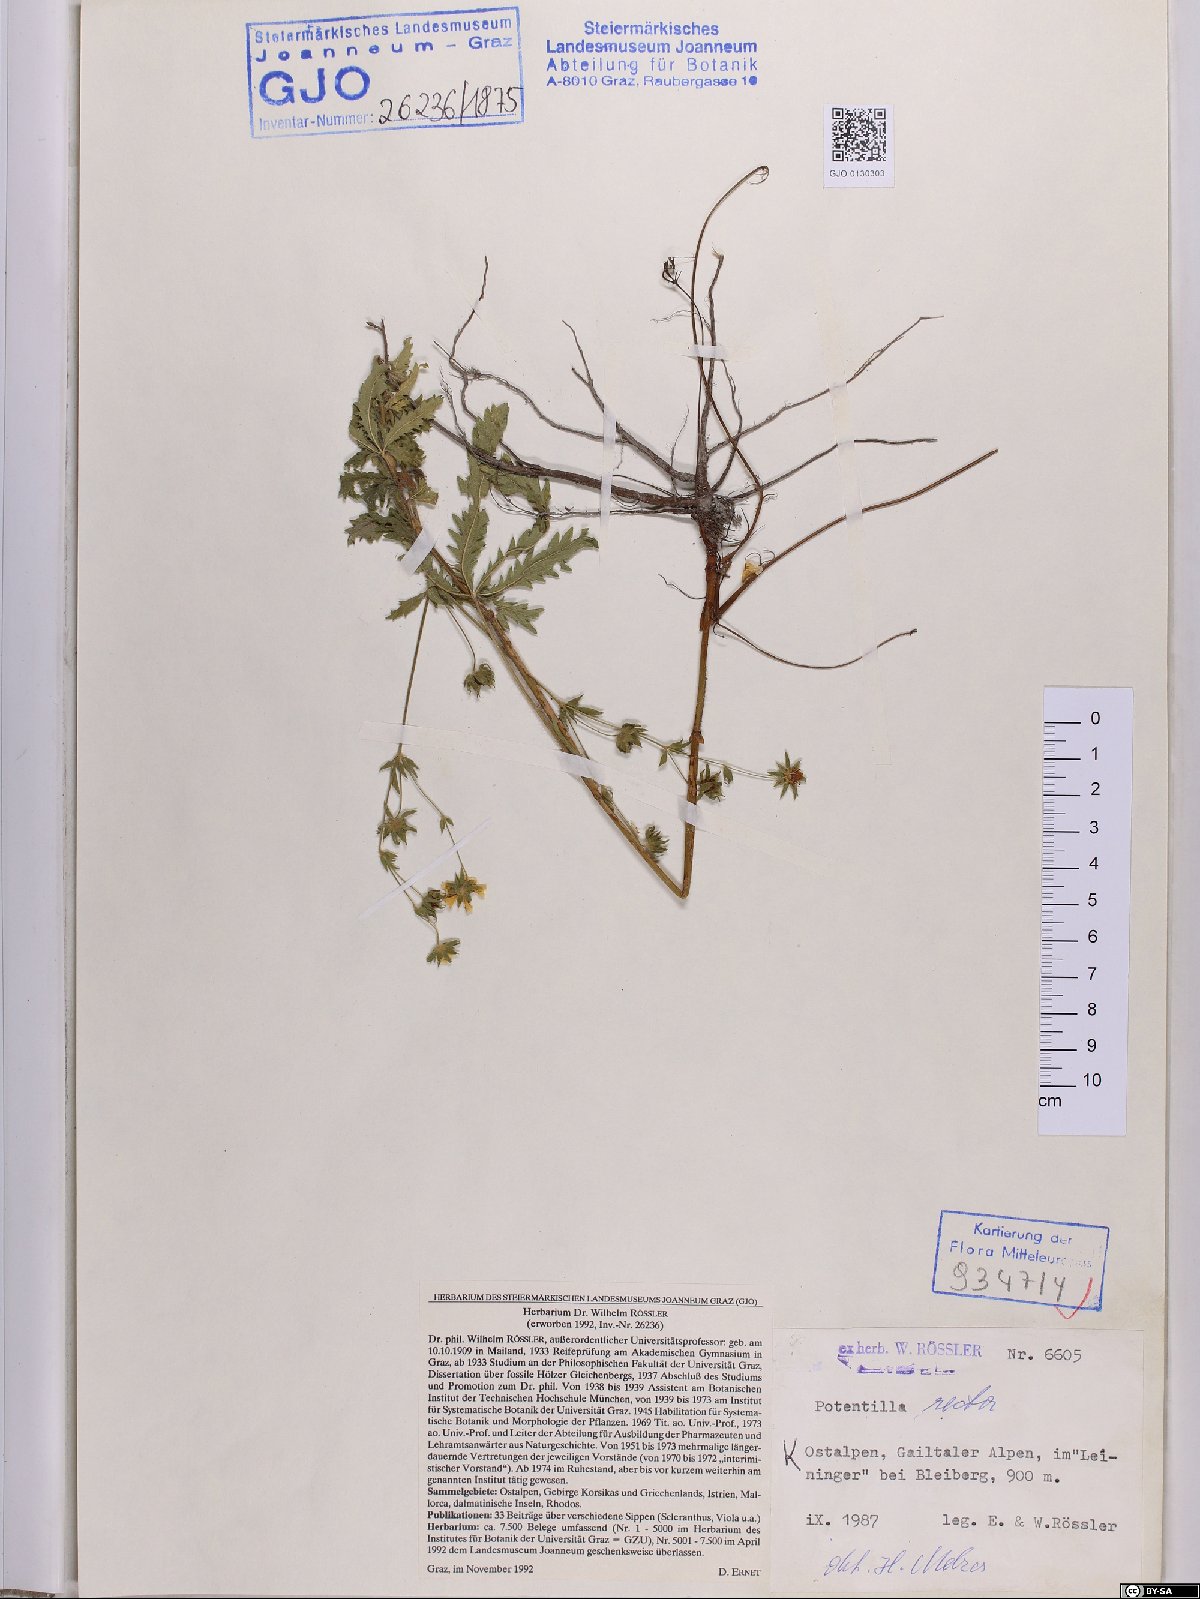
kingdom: Plantae
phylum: Tracheophyta
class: Magnoliopsida
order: Rosales
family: Rosaceae
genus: Potentilla
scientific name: Potentilla recta
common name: Sulphur cinquefoil
